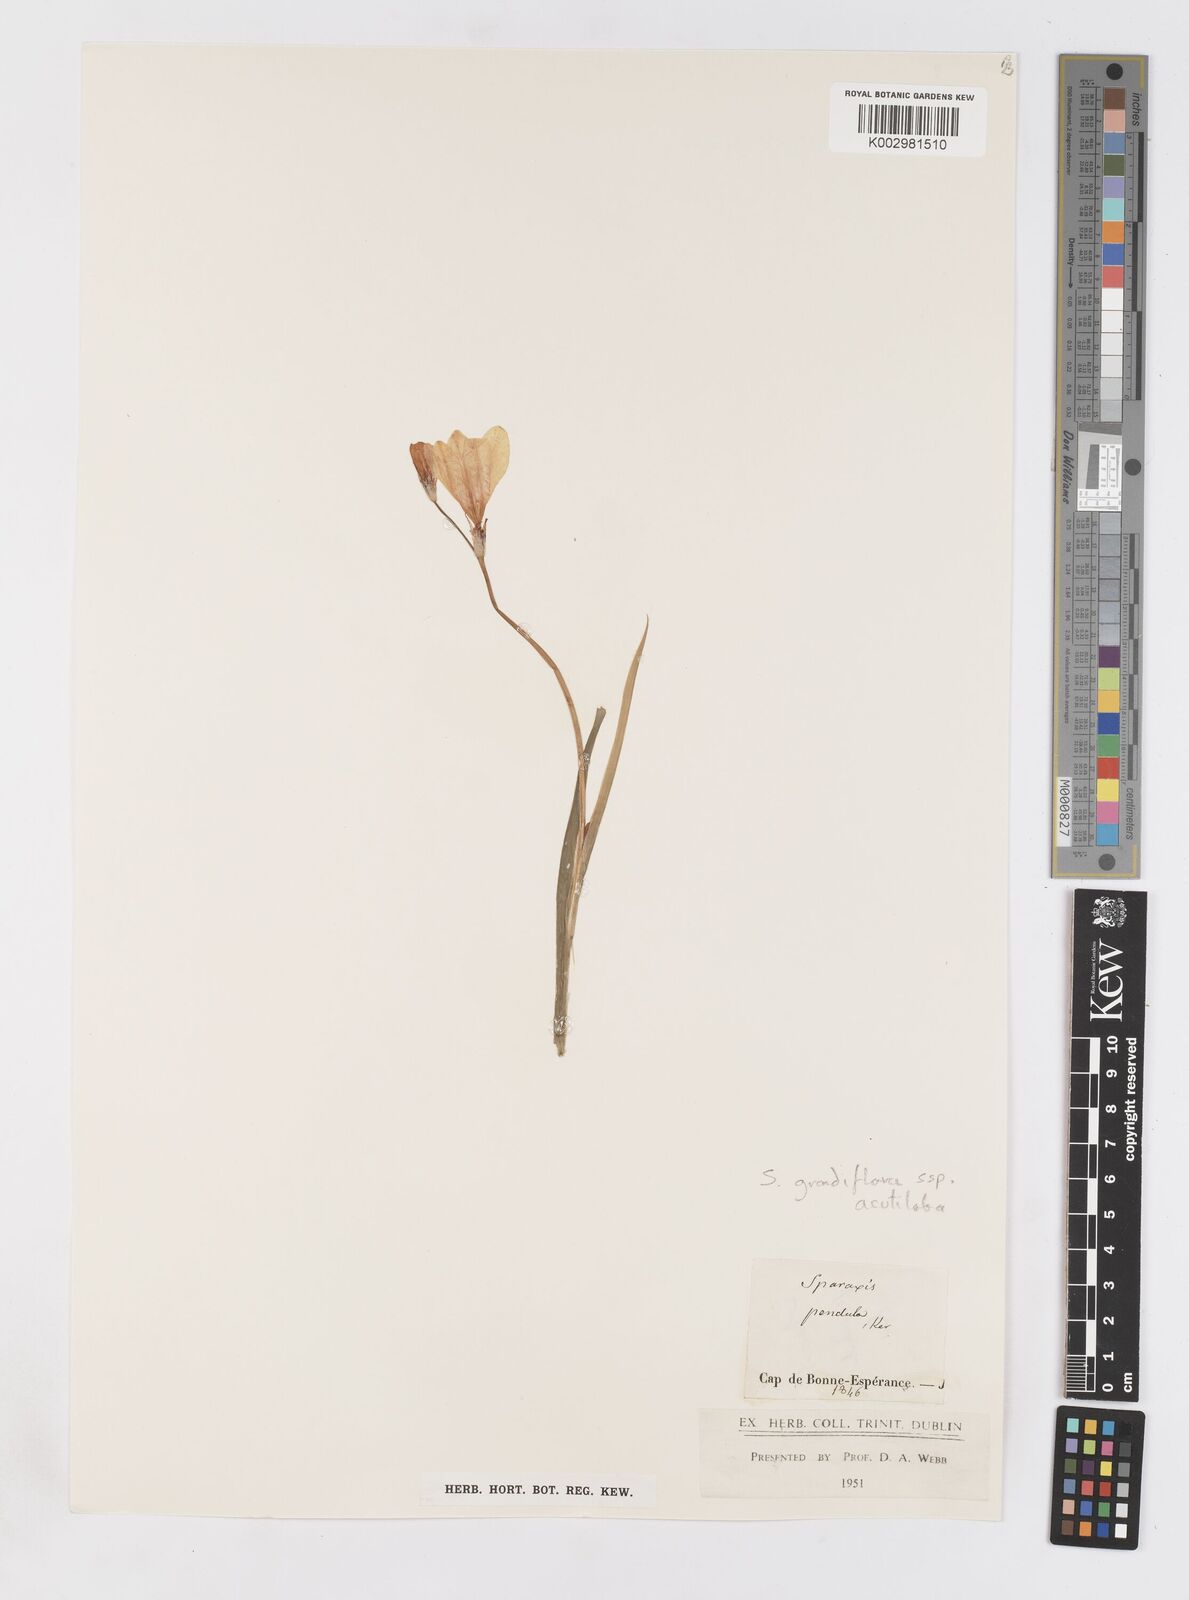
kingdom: Plantae
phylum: Tracheophyta
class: Liliopsida
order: Asparagales
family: Iridaceae
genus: Sparaxis
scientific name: Sparaxis grandiflora
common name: Plain harlequin-flower
